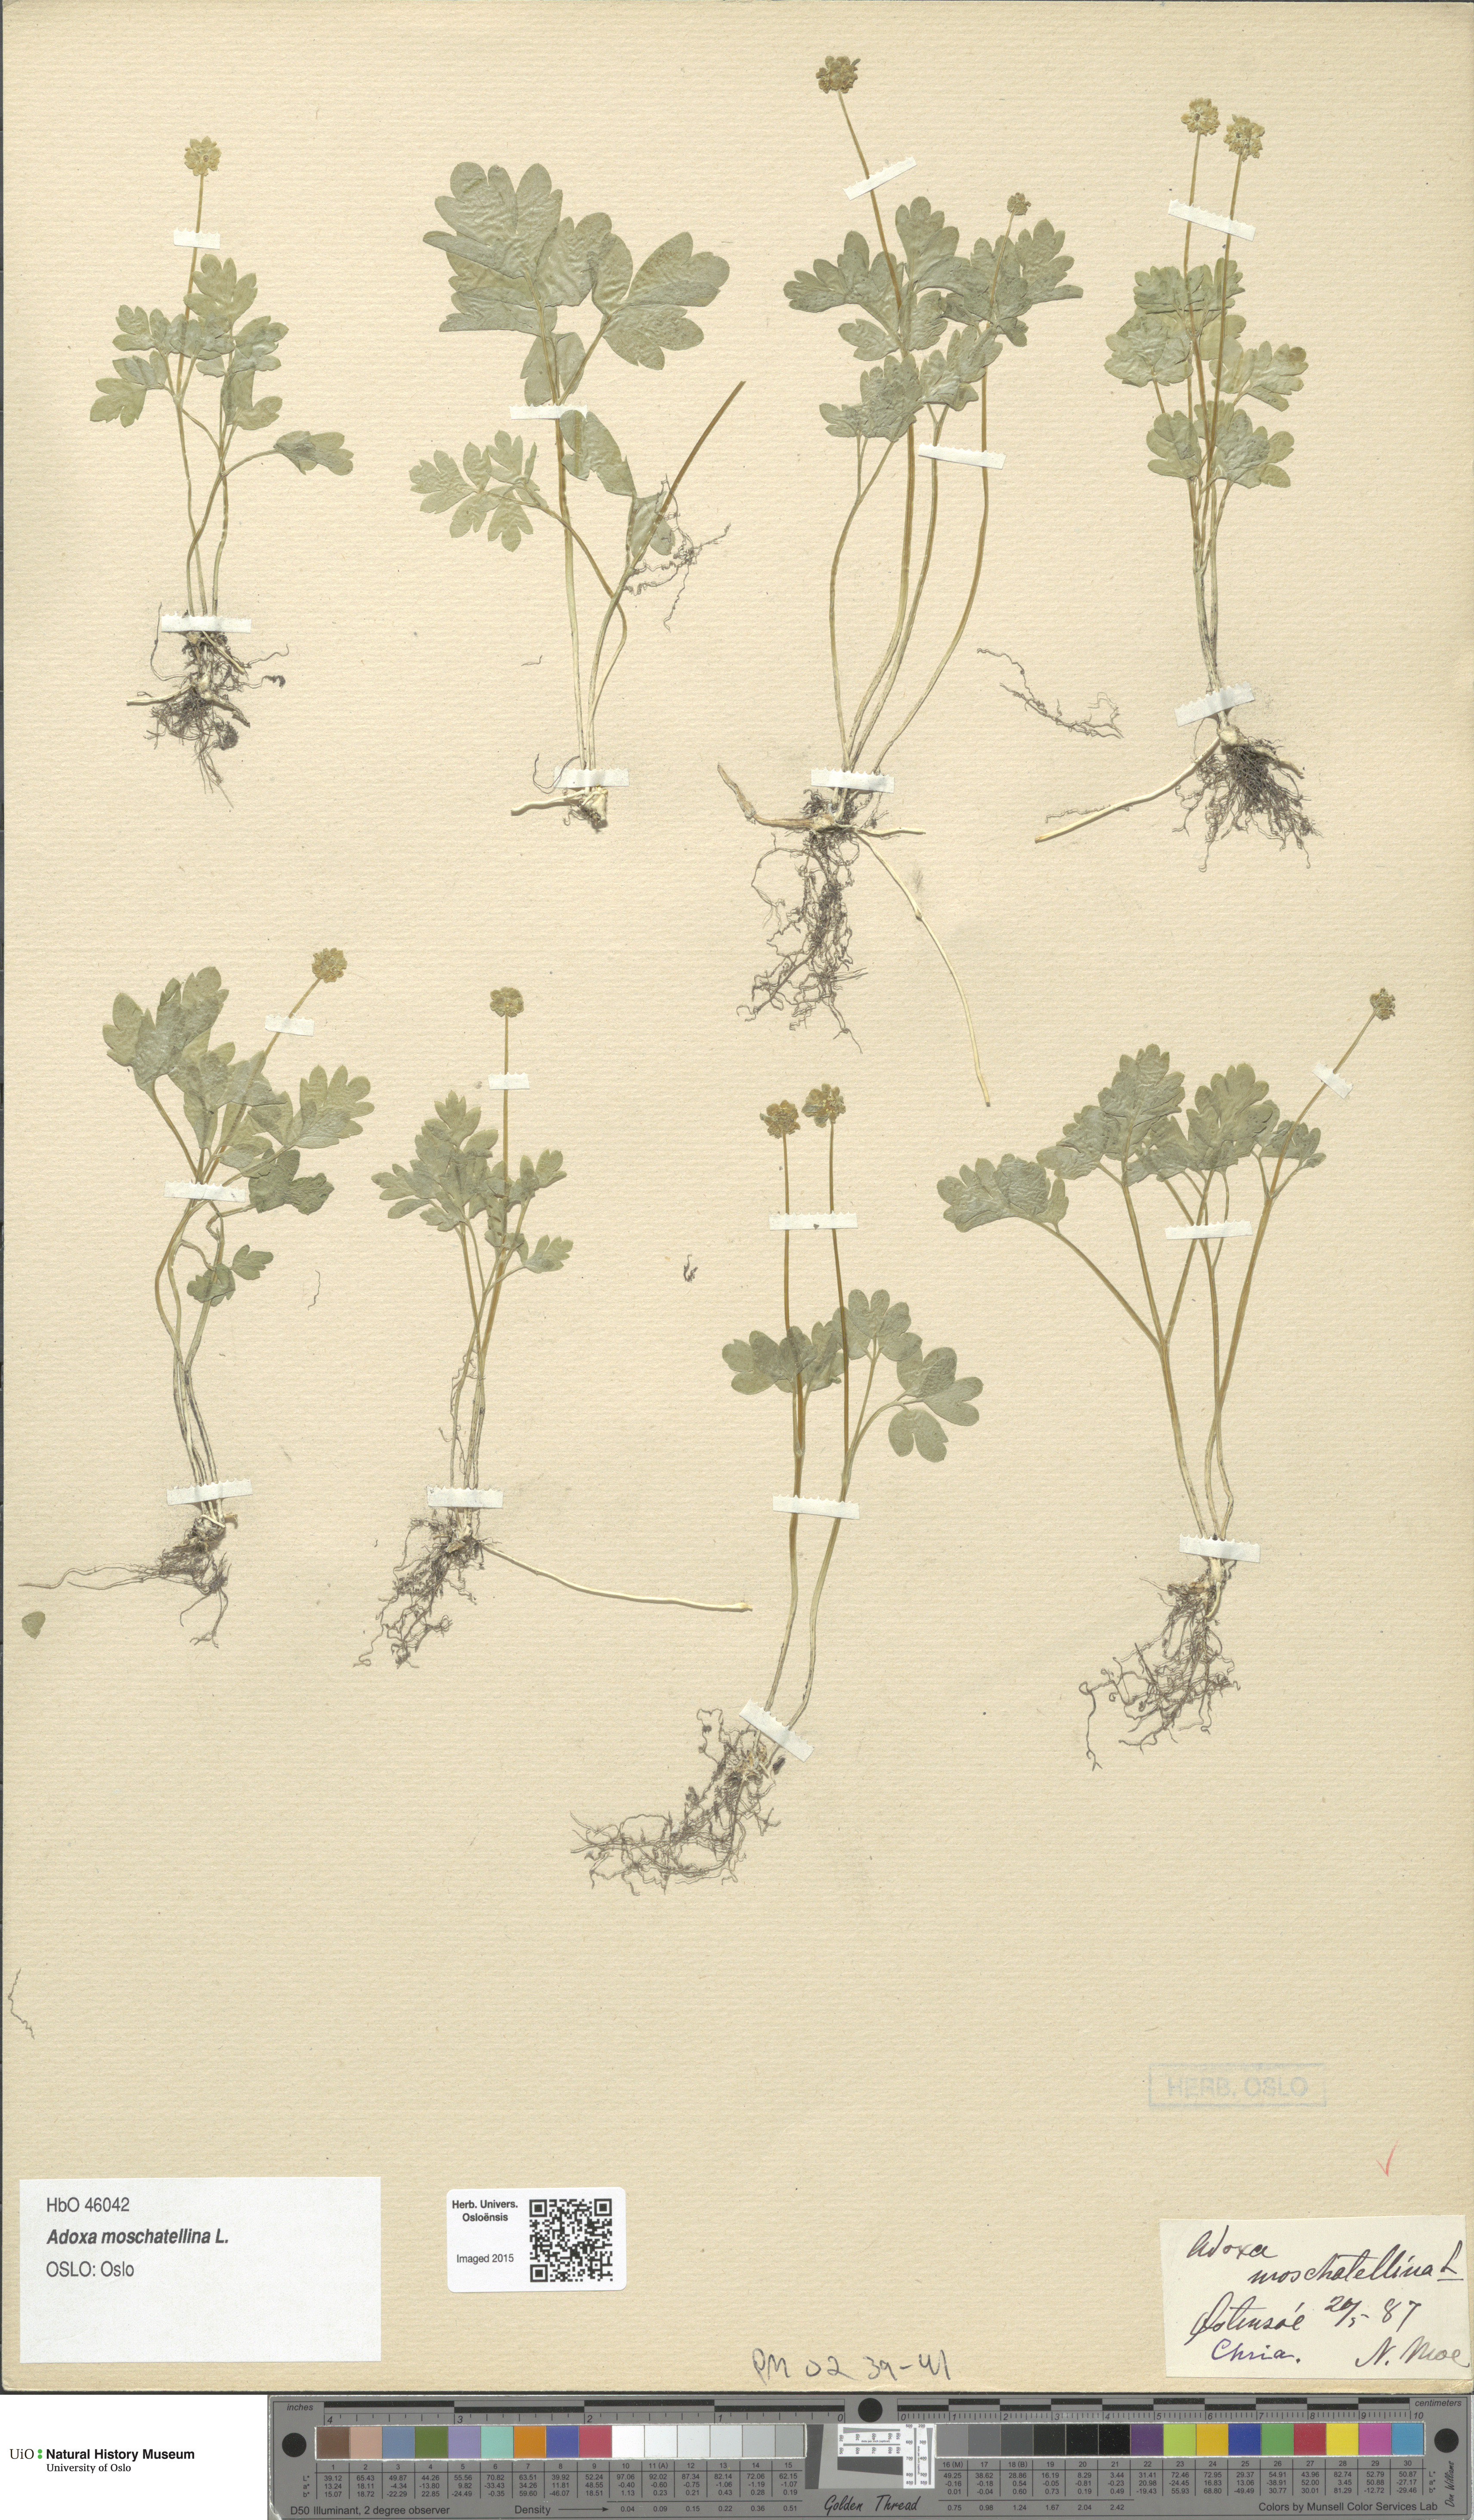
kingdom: Plantae
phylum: Tracheophyta
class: Magnoliopsida
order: Dipsacales
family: Viburnaceae
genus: Adoxa
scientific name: Adoxa moschatellina
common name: Moschatel
